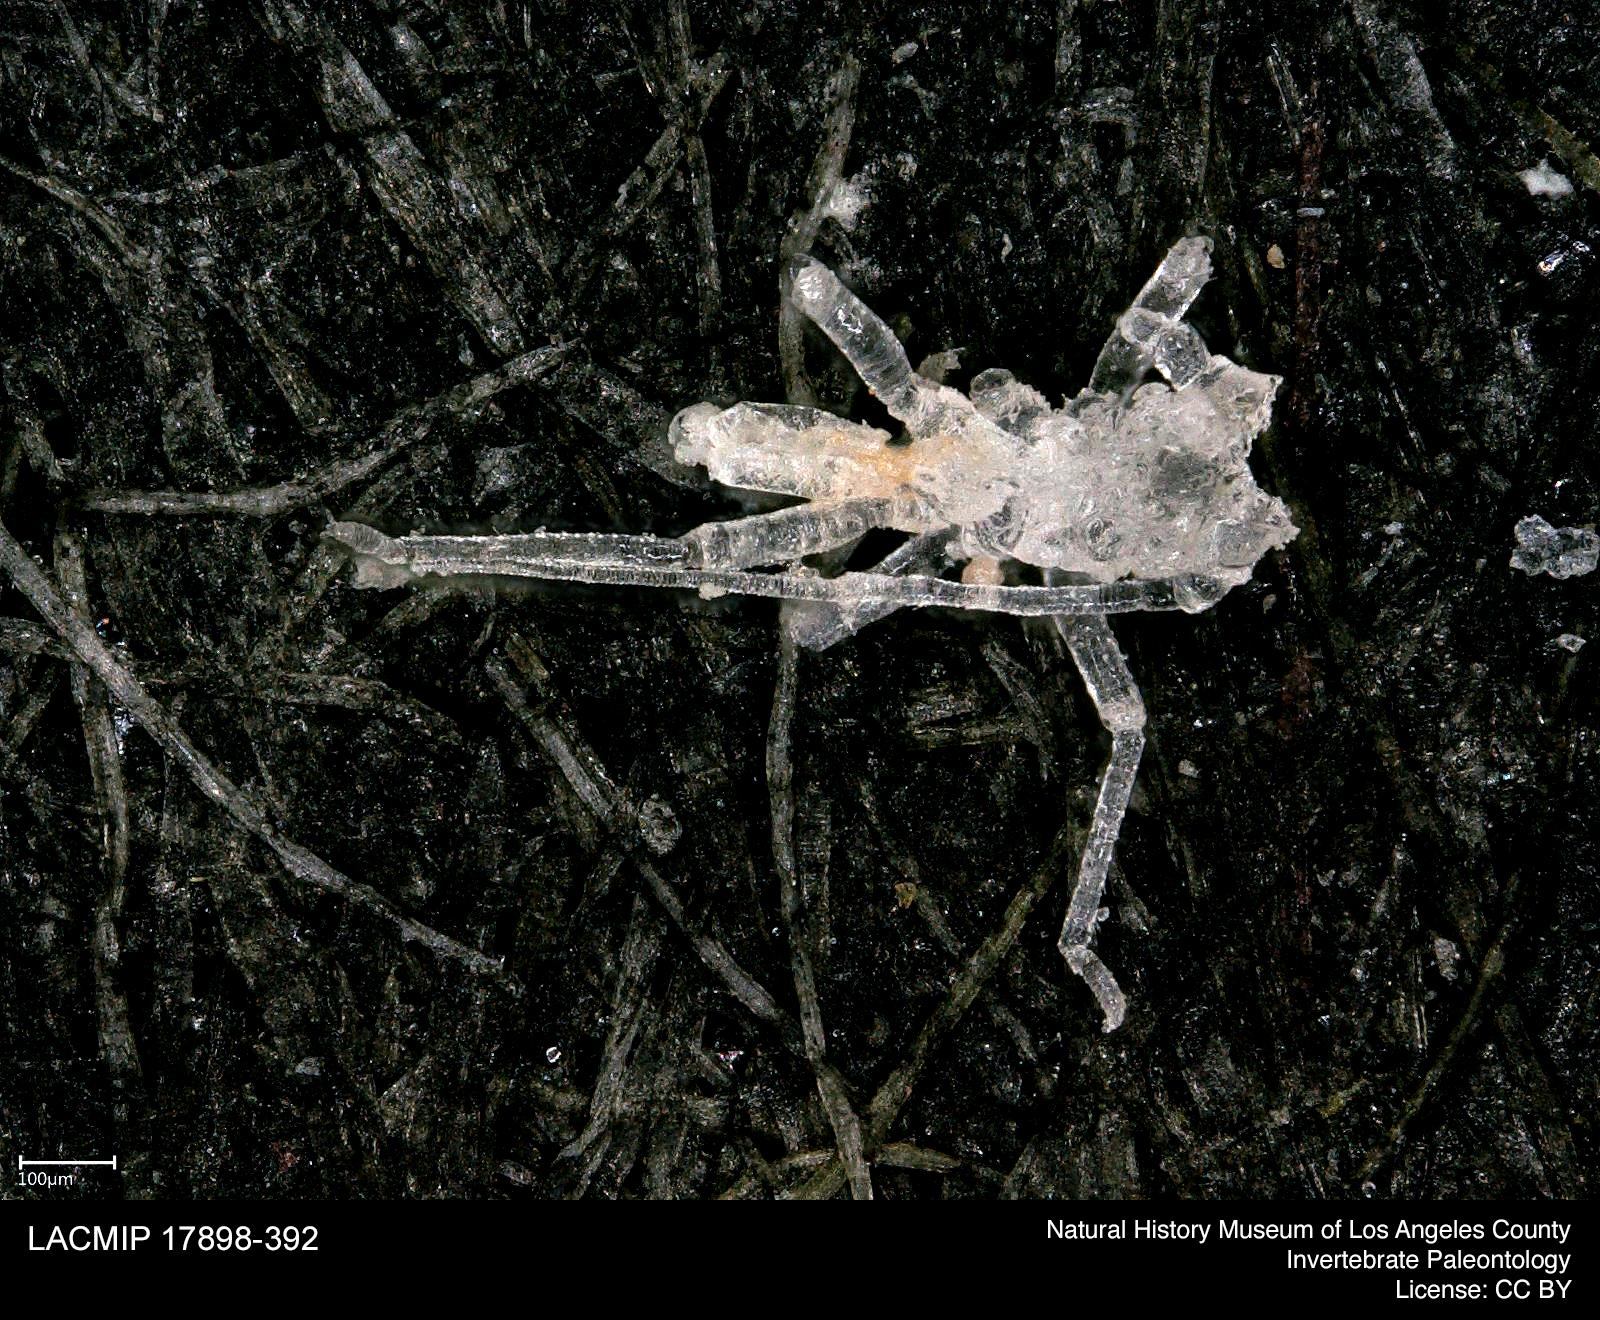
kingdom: Animalia
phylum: Arthropoda
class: Insecta
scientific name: Insecta
